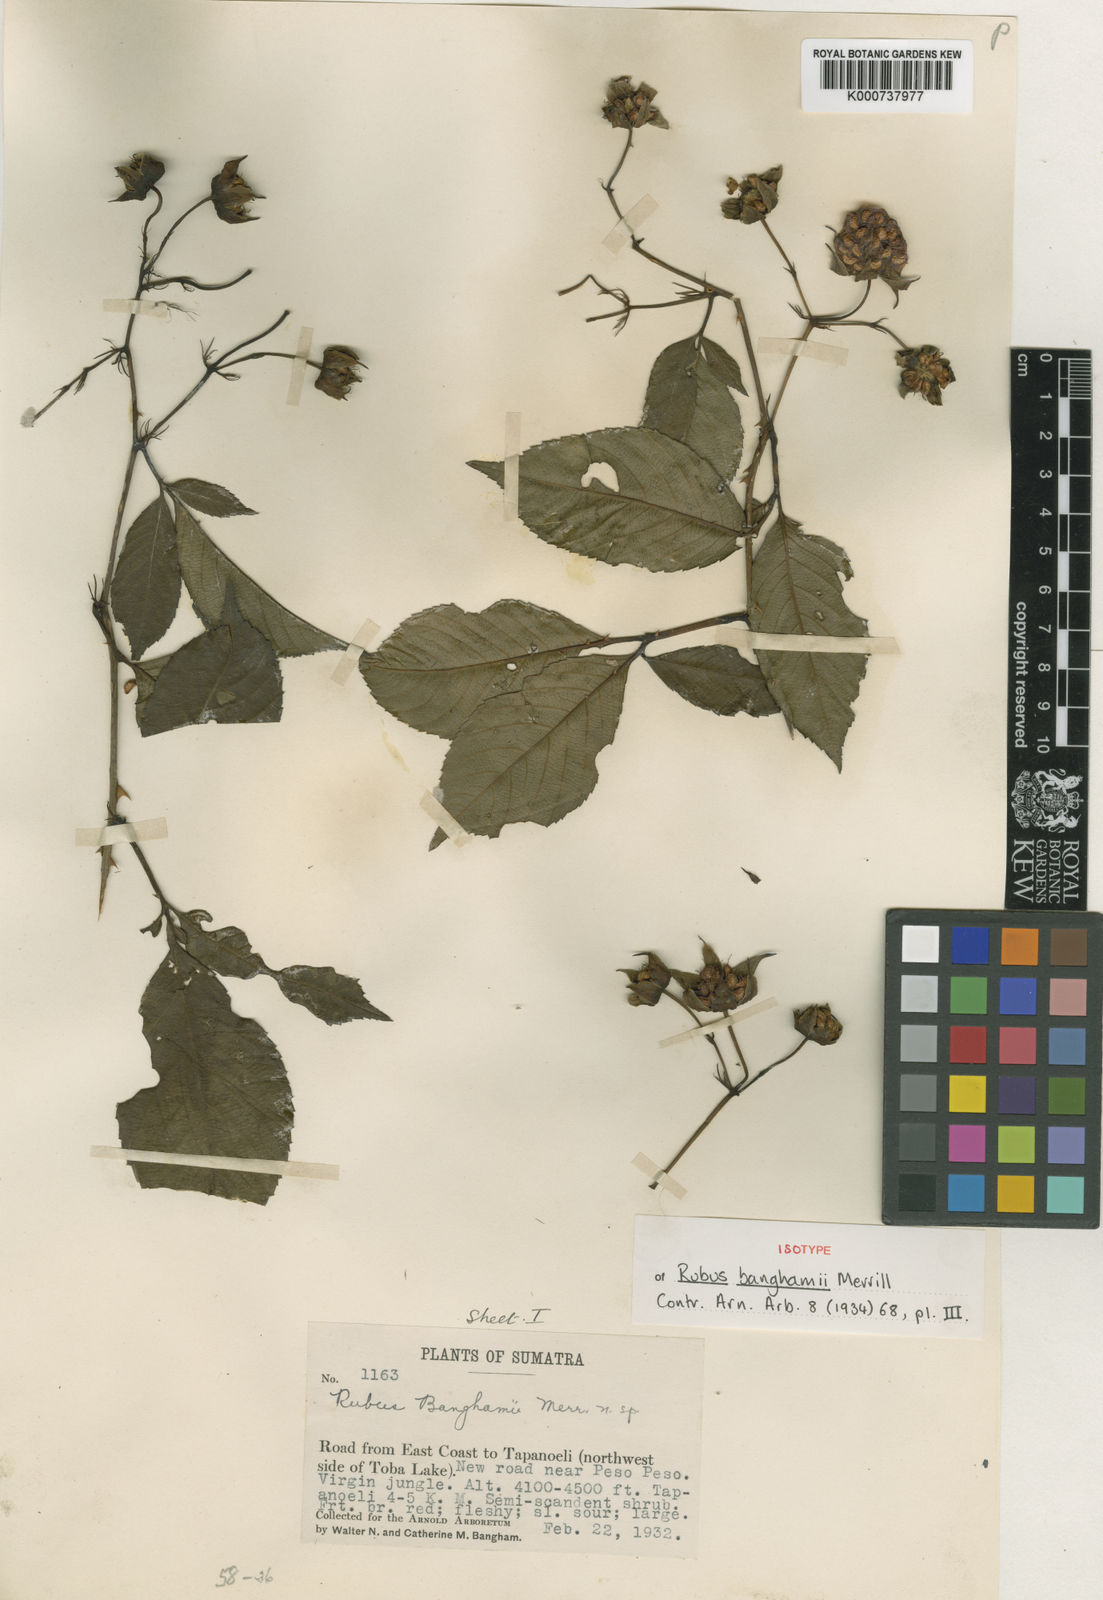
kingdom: Plantae
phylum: Tracheophyta
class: Magnoliopsida
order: Rosales
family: Rosaceae
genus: Rubus
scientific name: Rubus banghamii
